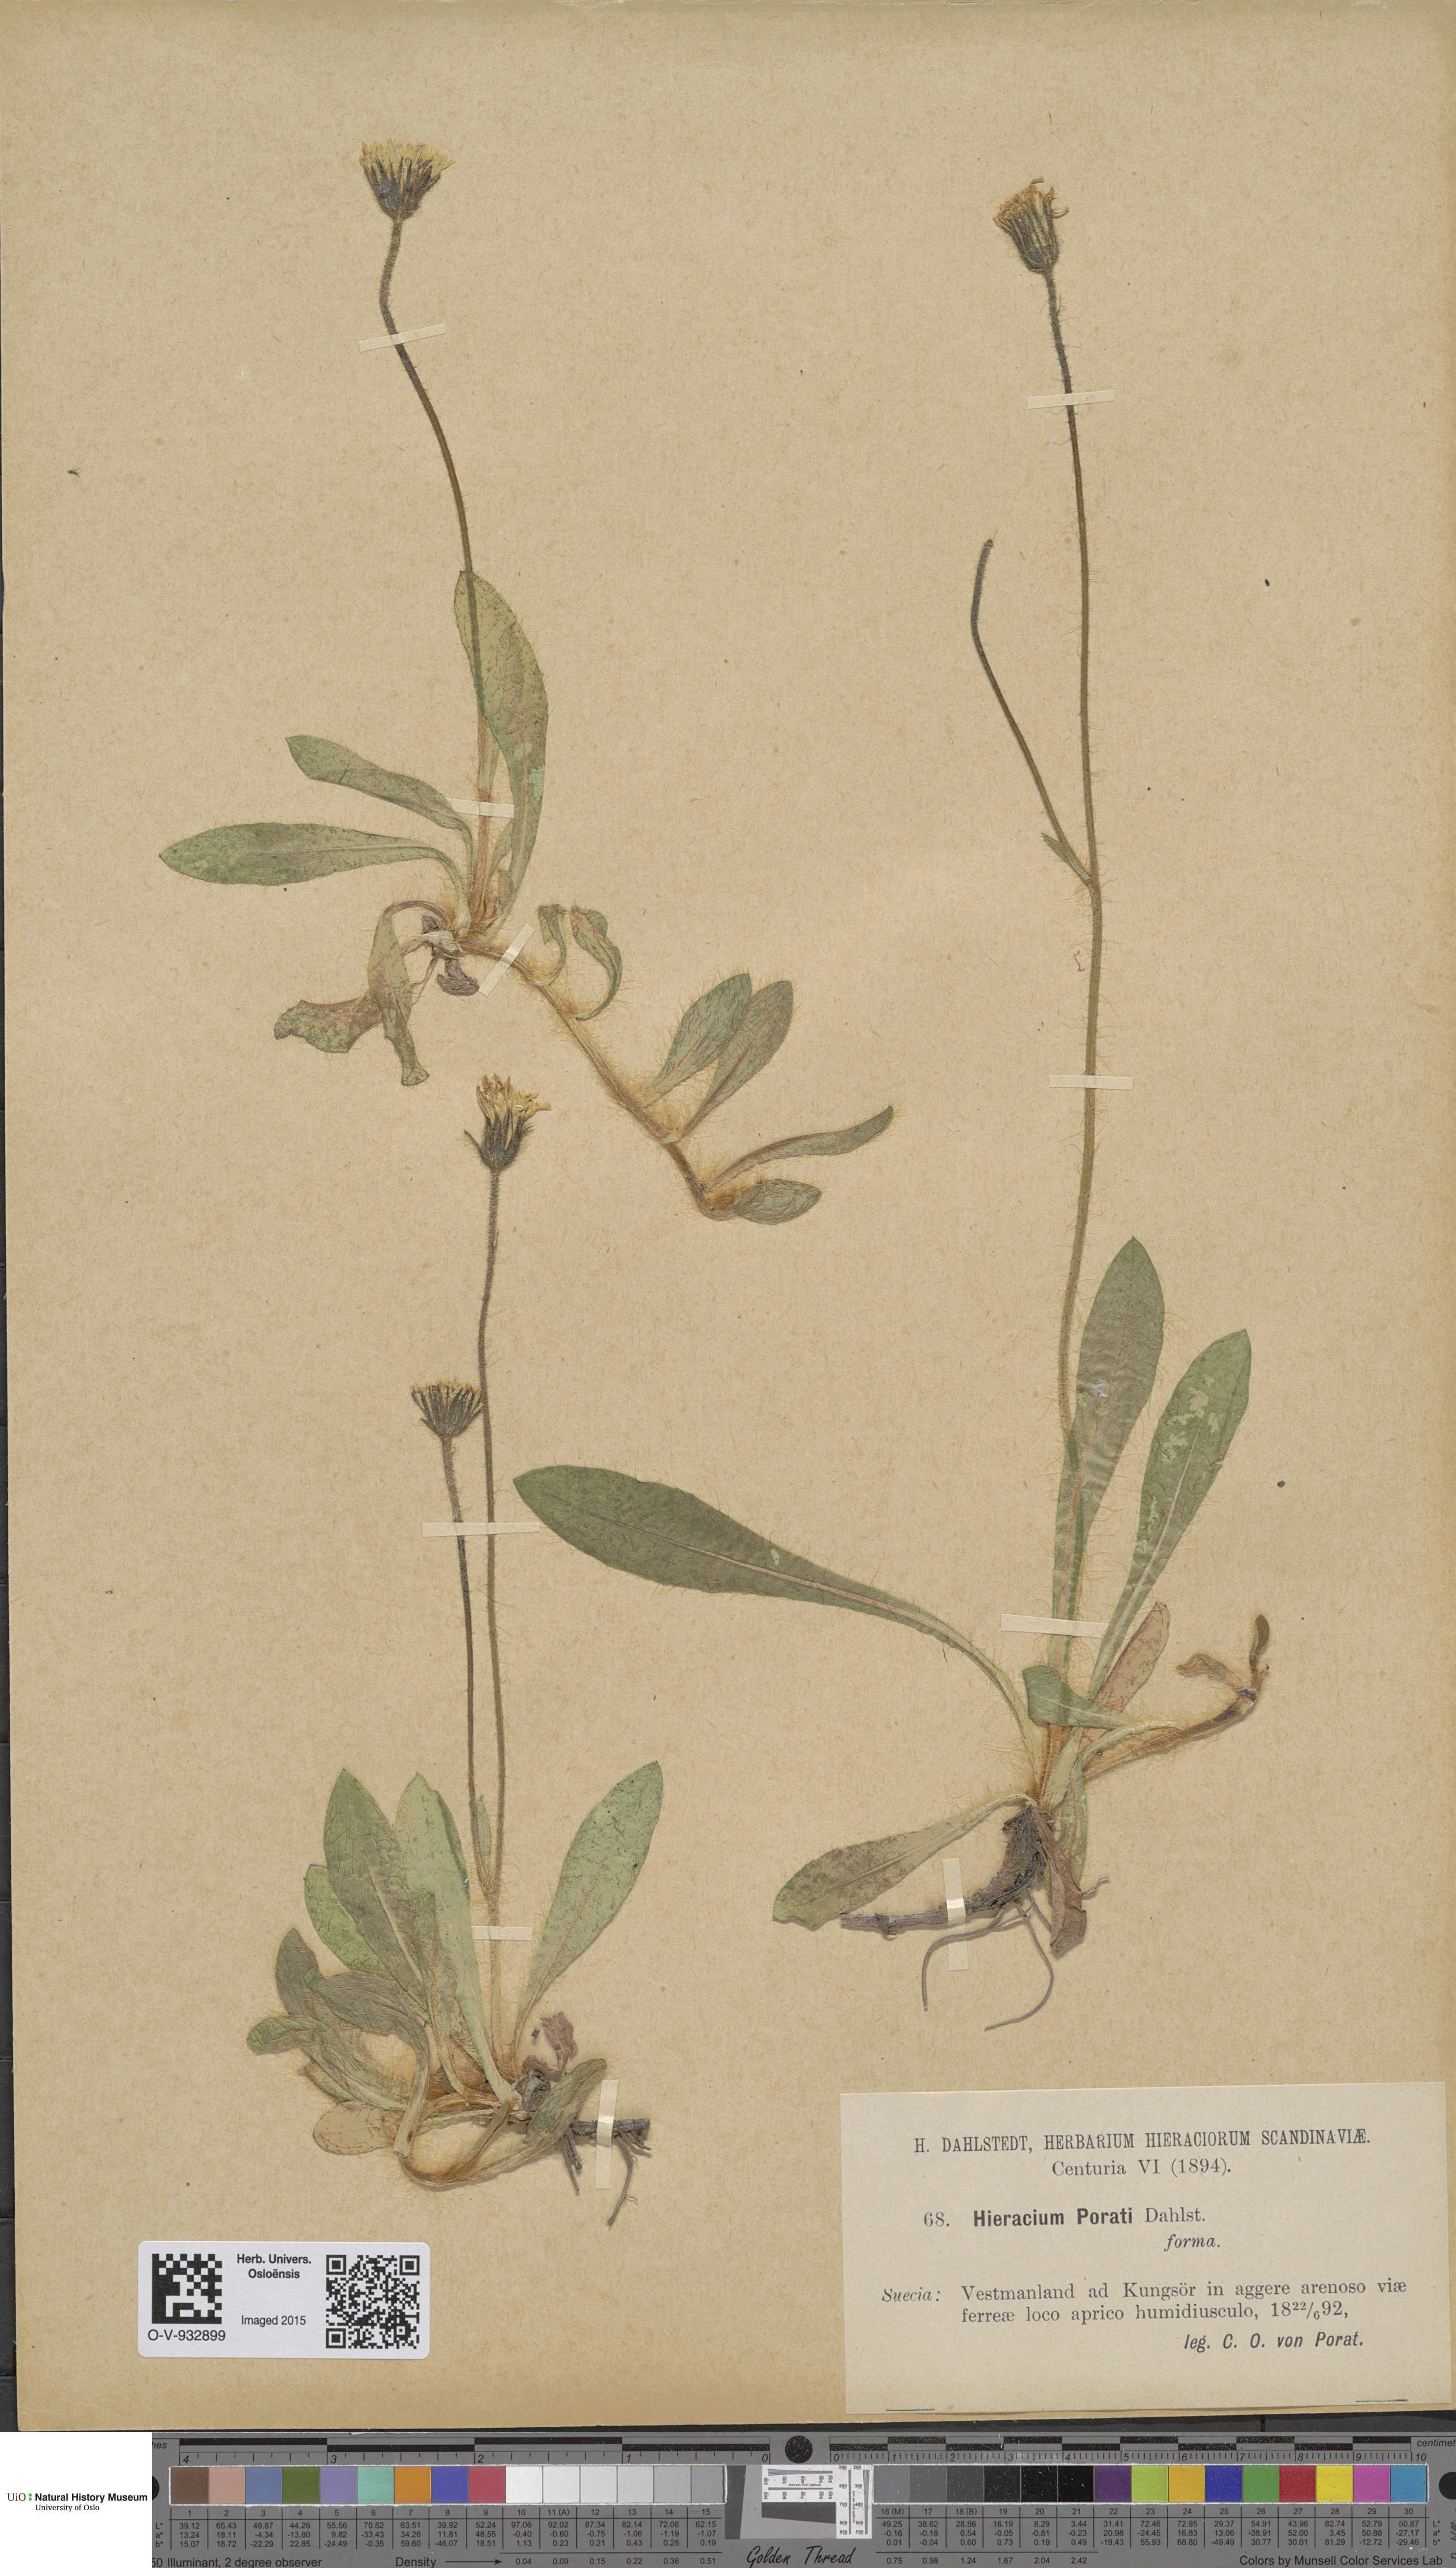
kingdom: Plantae
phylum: Tracheophyta
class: Magnoliopsida
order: Asterales
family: Asteraceae
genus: Hieracium
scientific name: Hieracium
